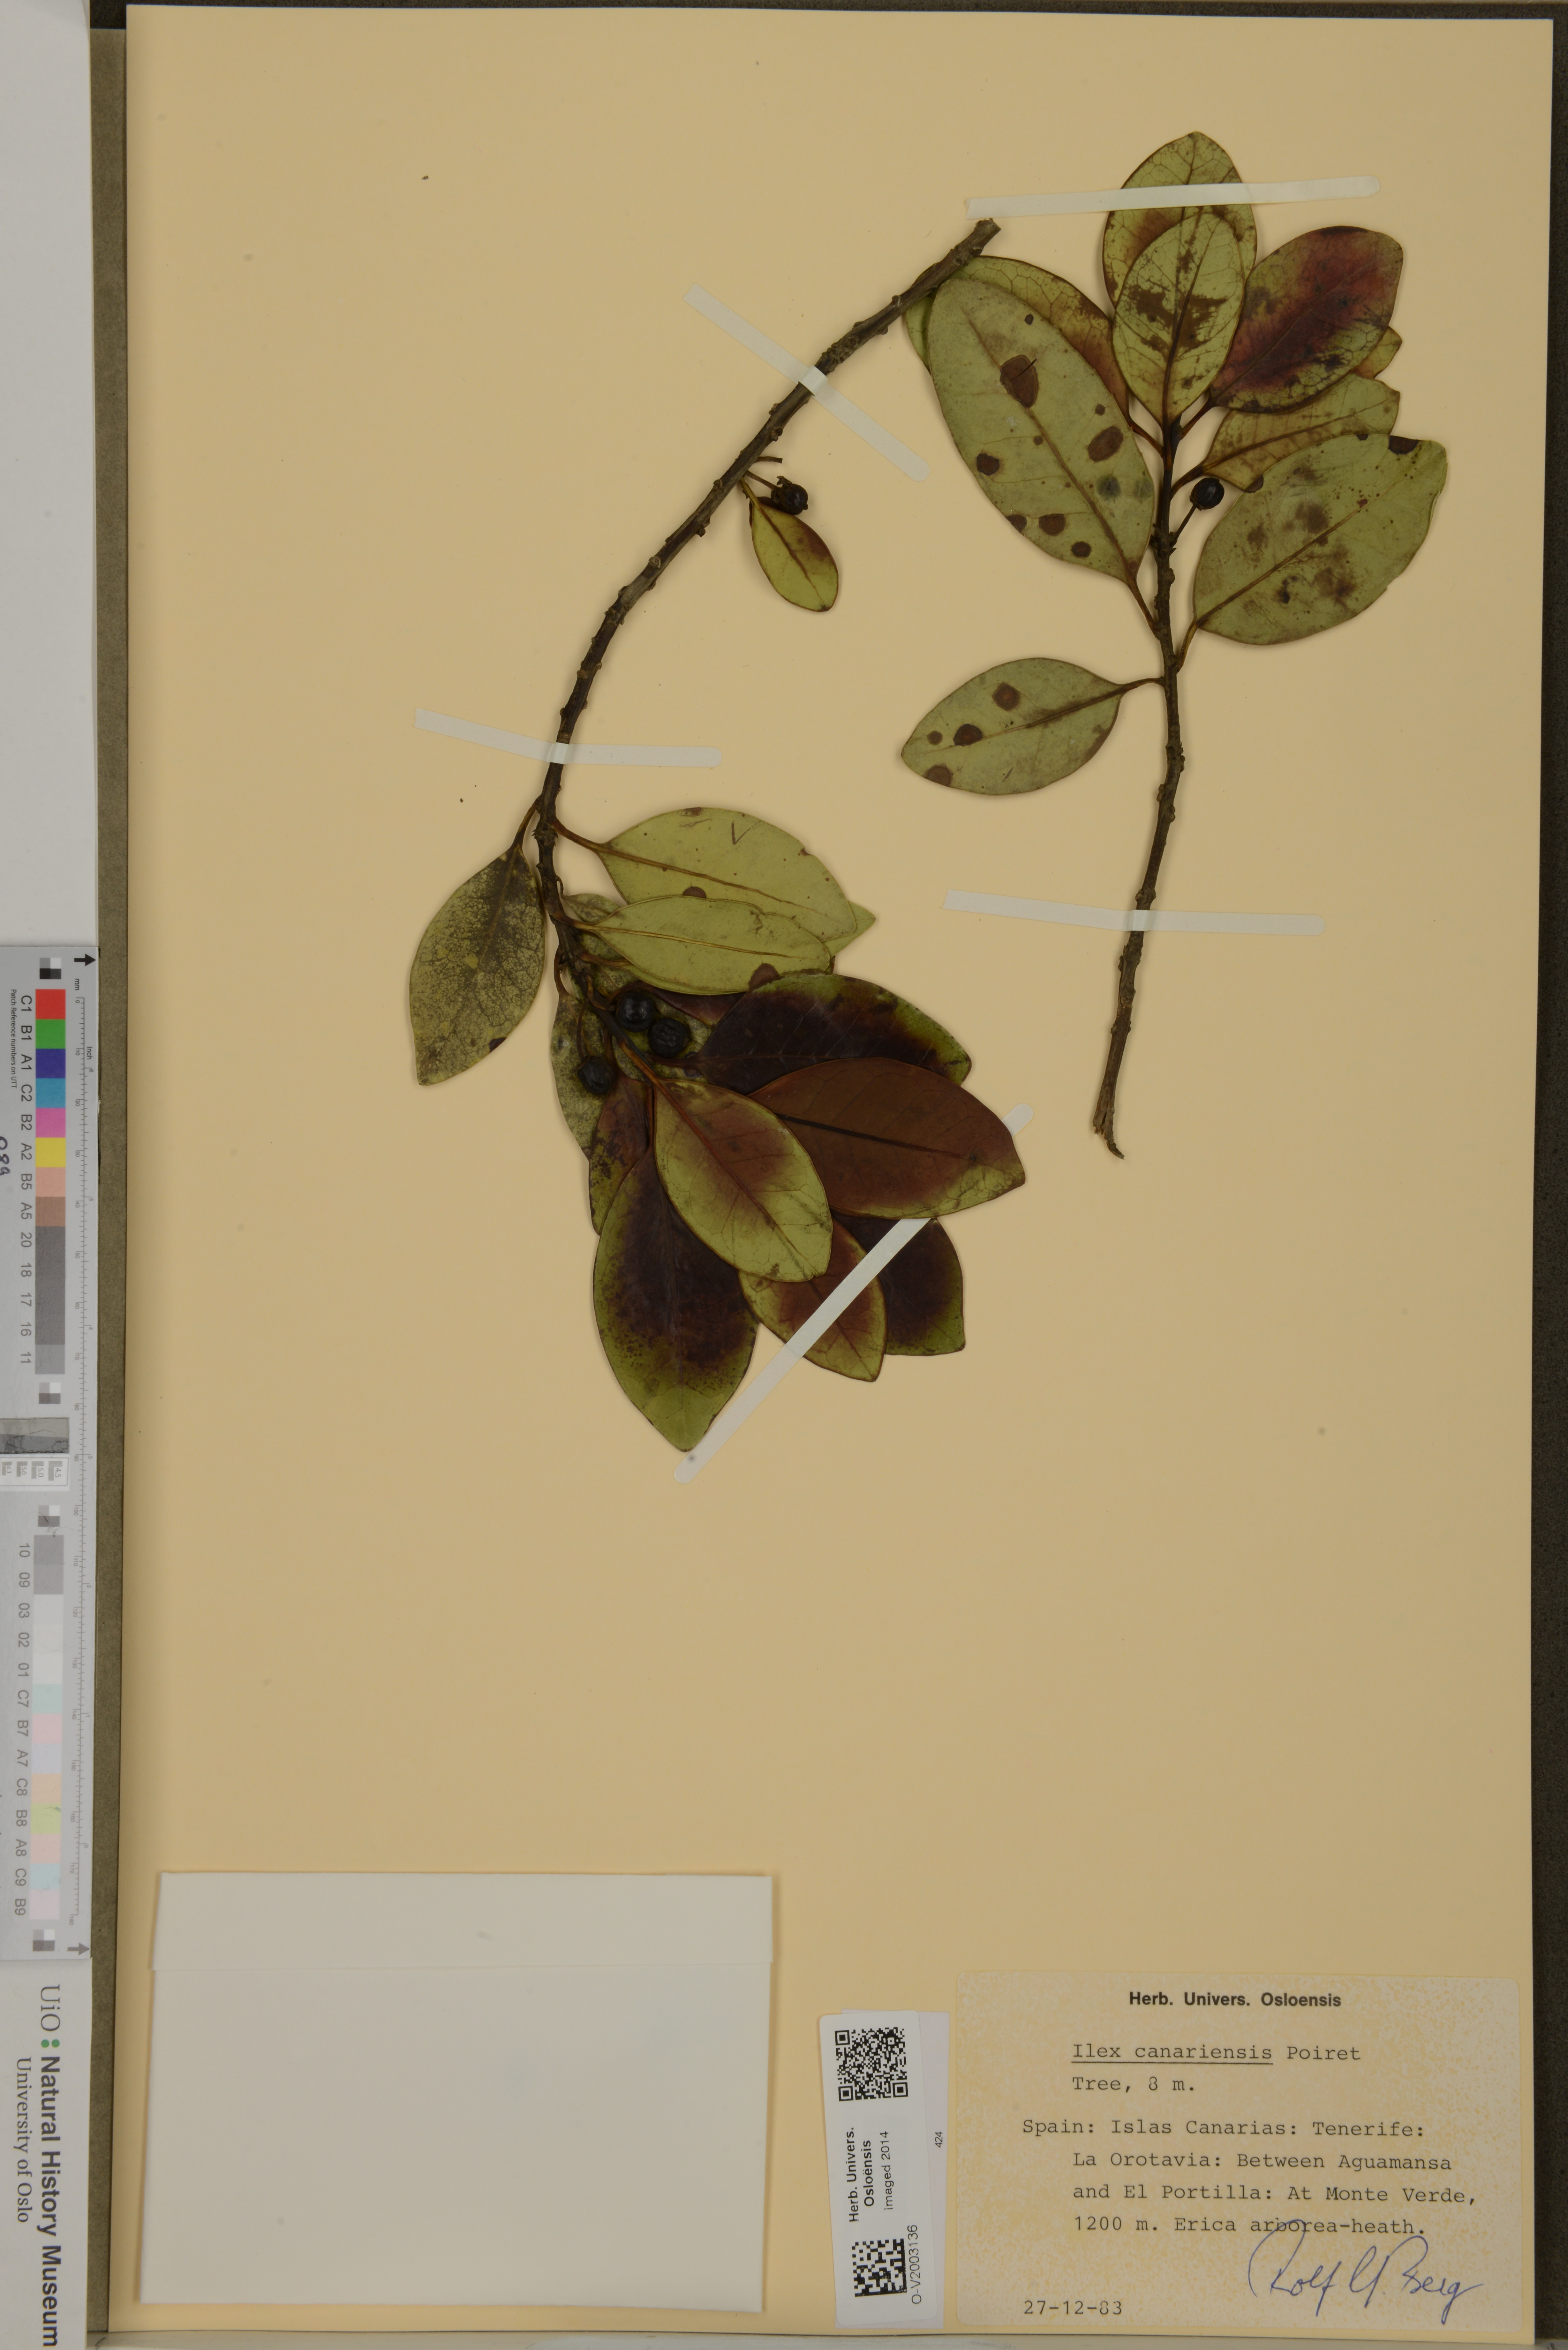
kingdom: Plantae
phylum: Tracheophyta
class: Magnoliopsida
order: Aquifoliales
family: Aquifoliaceae
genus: Ilex
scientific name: Ilex canariensis
